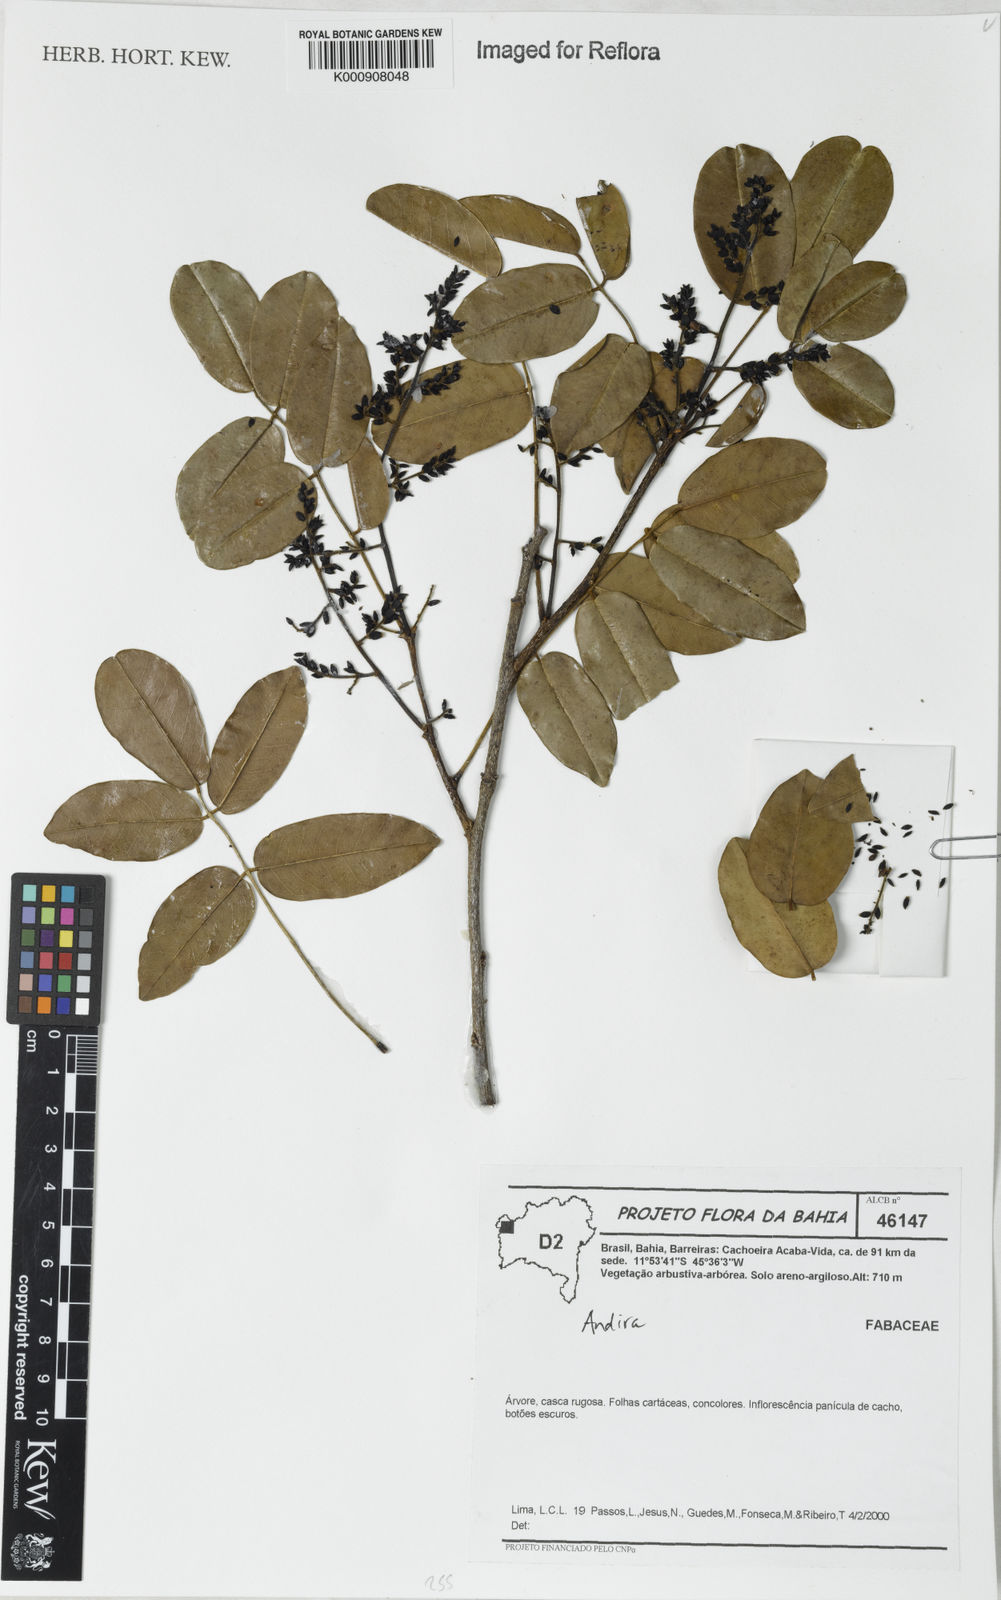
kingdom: Plantae
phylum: Tracheophyta
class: Magnoliopsida
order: Fabales
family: Fabaceae
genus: Andira
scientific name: Andira
